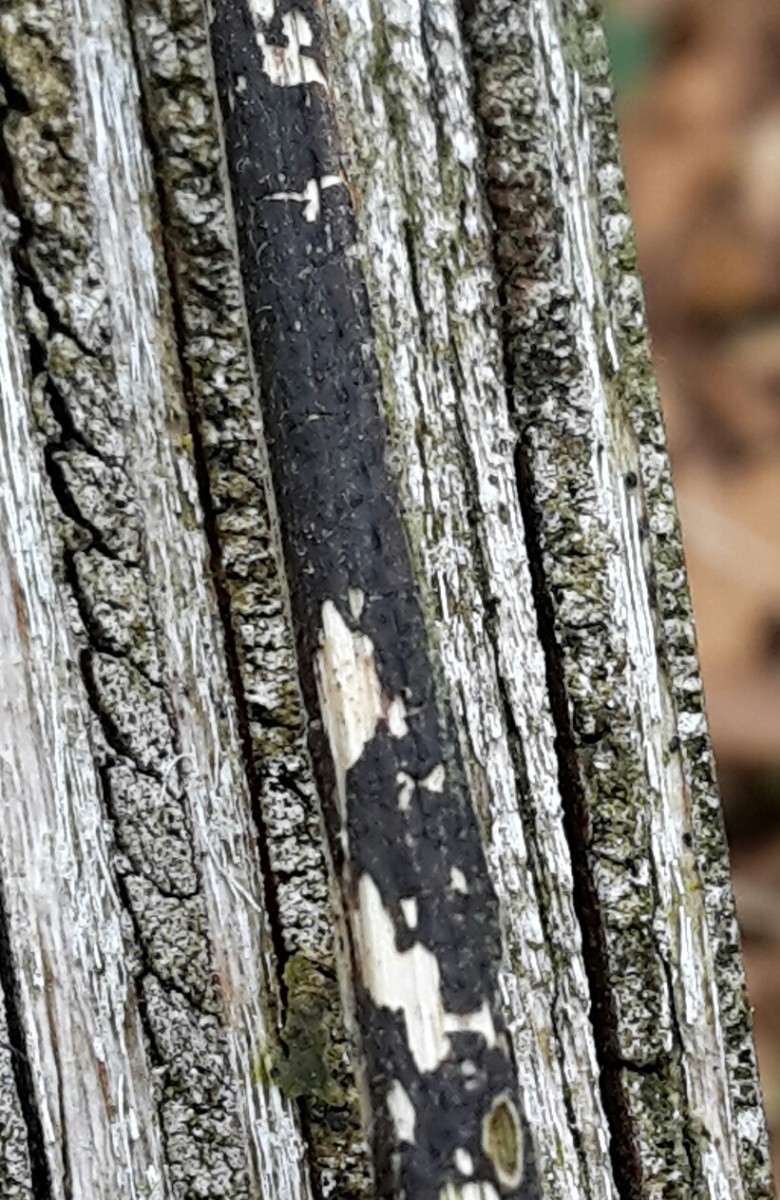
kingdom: Fungi
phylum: Ascomycota
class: Sordariomycetes
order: Diaporthales
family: Diaporthaceae
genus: Diaporthopsis
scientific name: Diaporthopsis urticae
